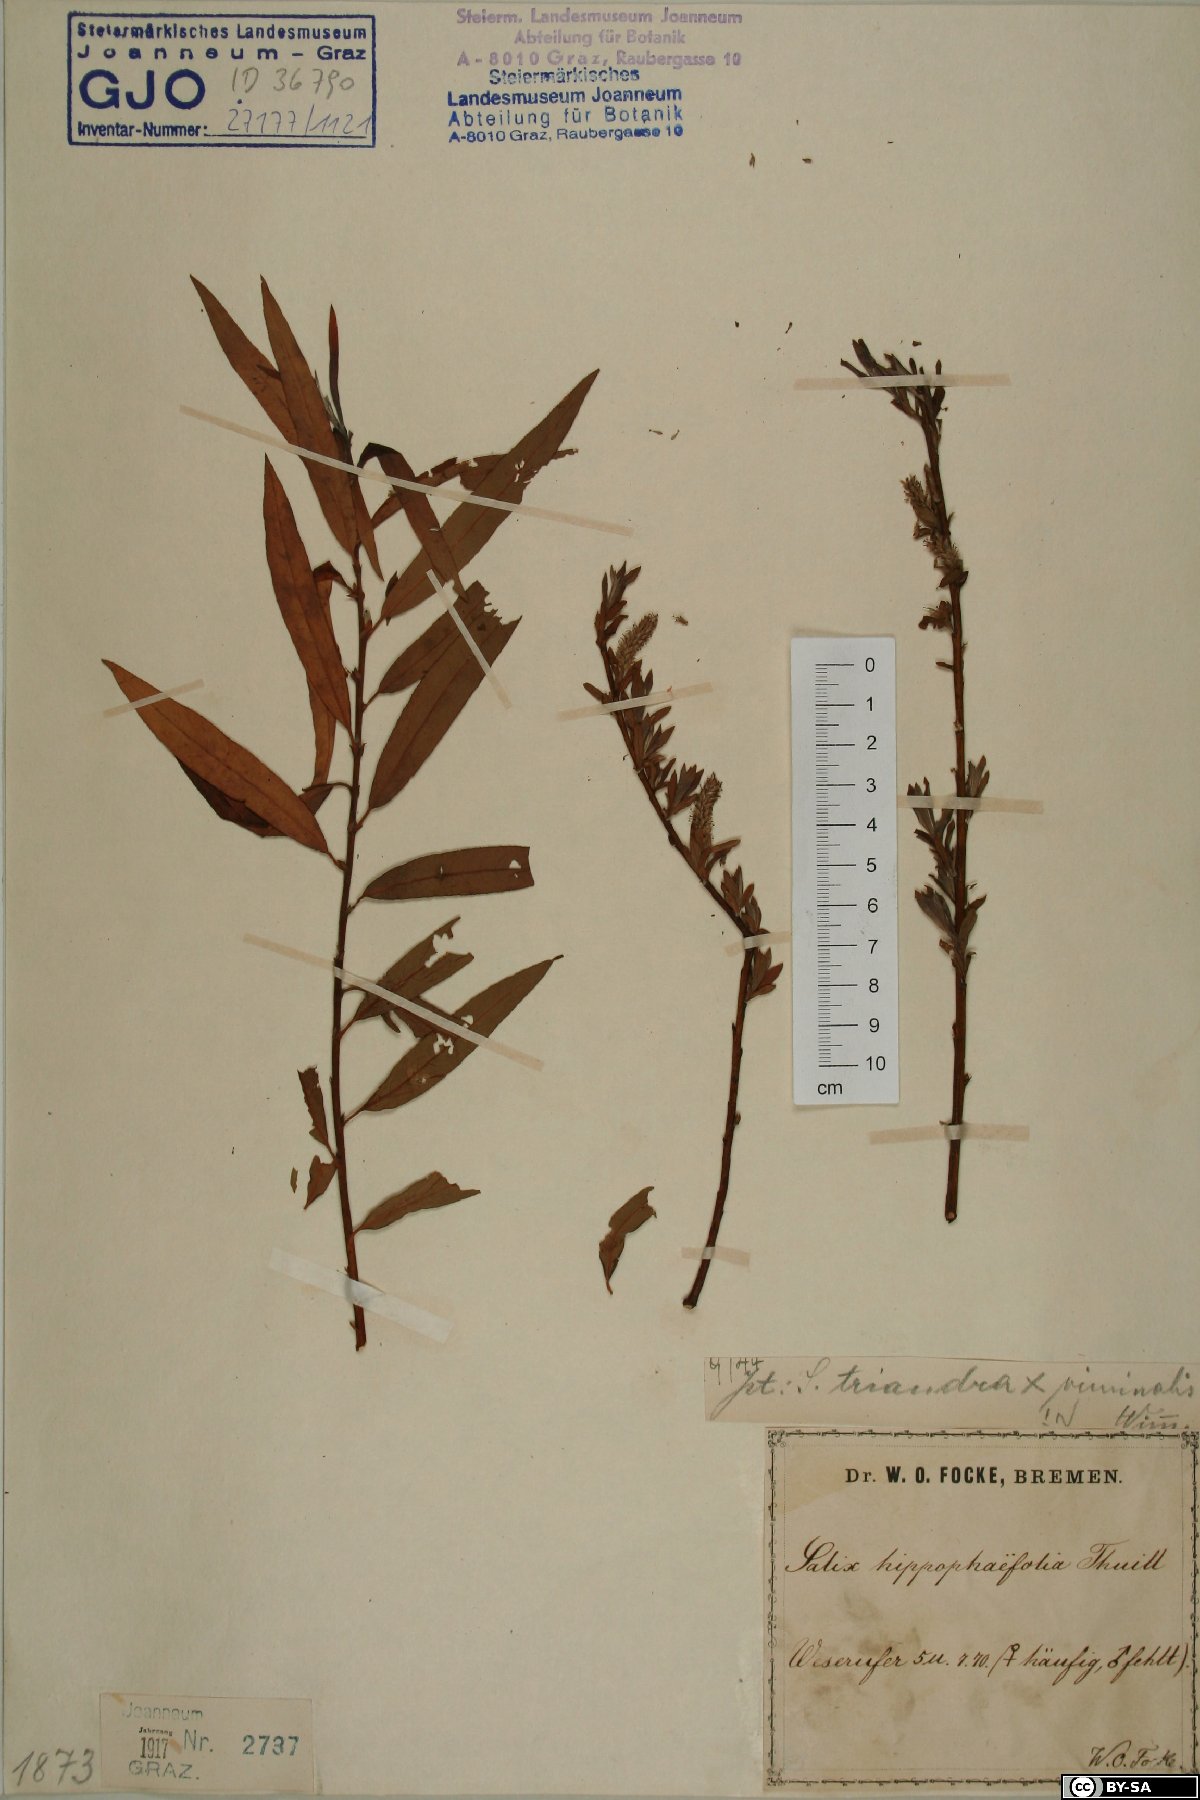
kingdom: Plantae
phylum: Tracheophyta
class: Magnoliopsida
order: Malpighiales
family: Salicaceae
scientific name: Salicaceae
